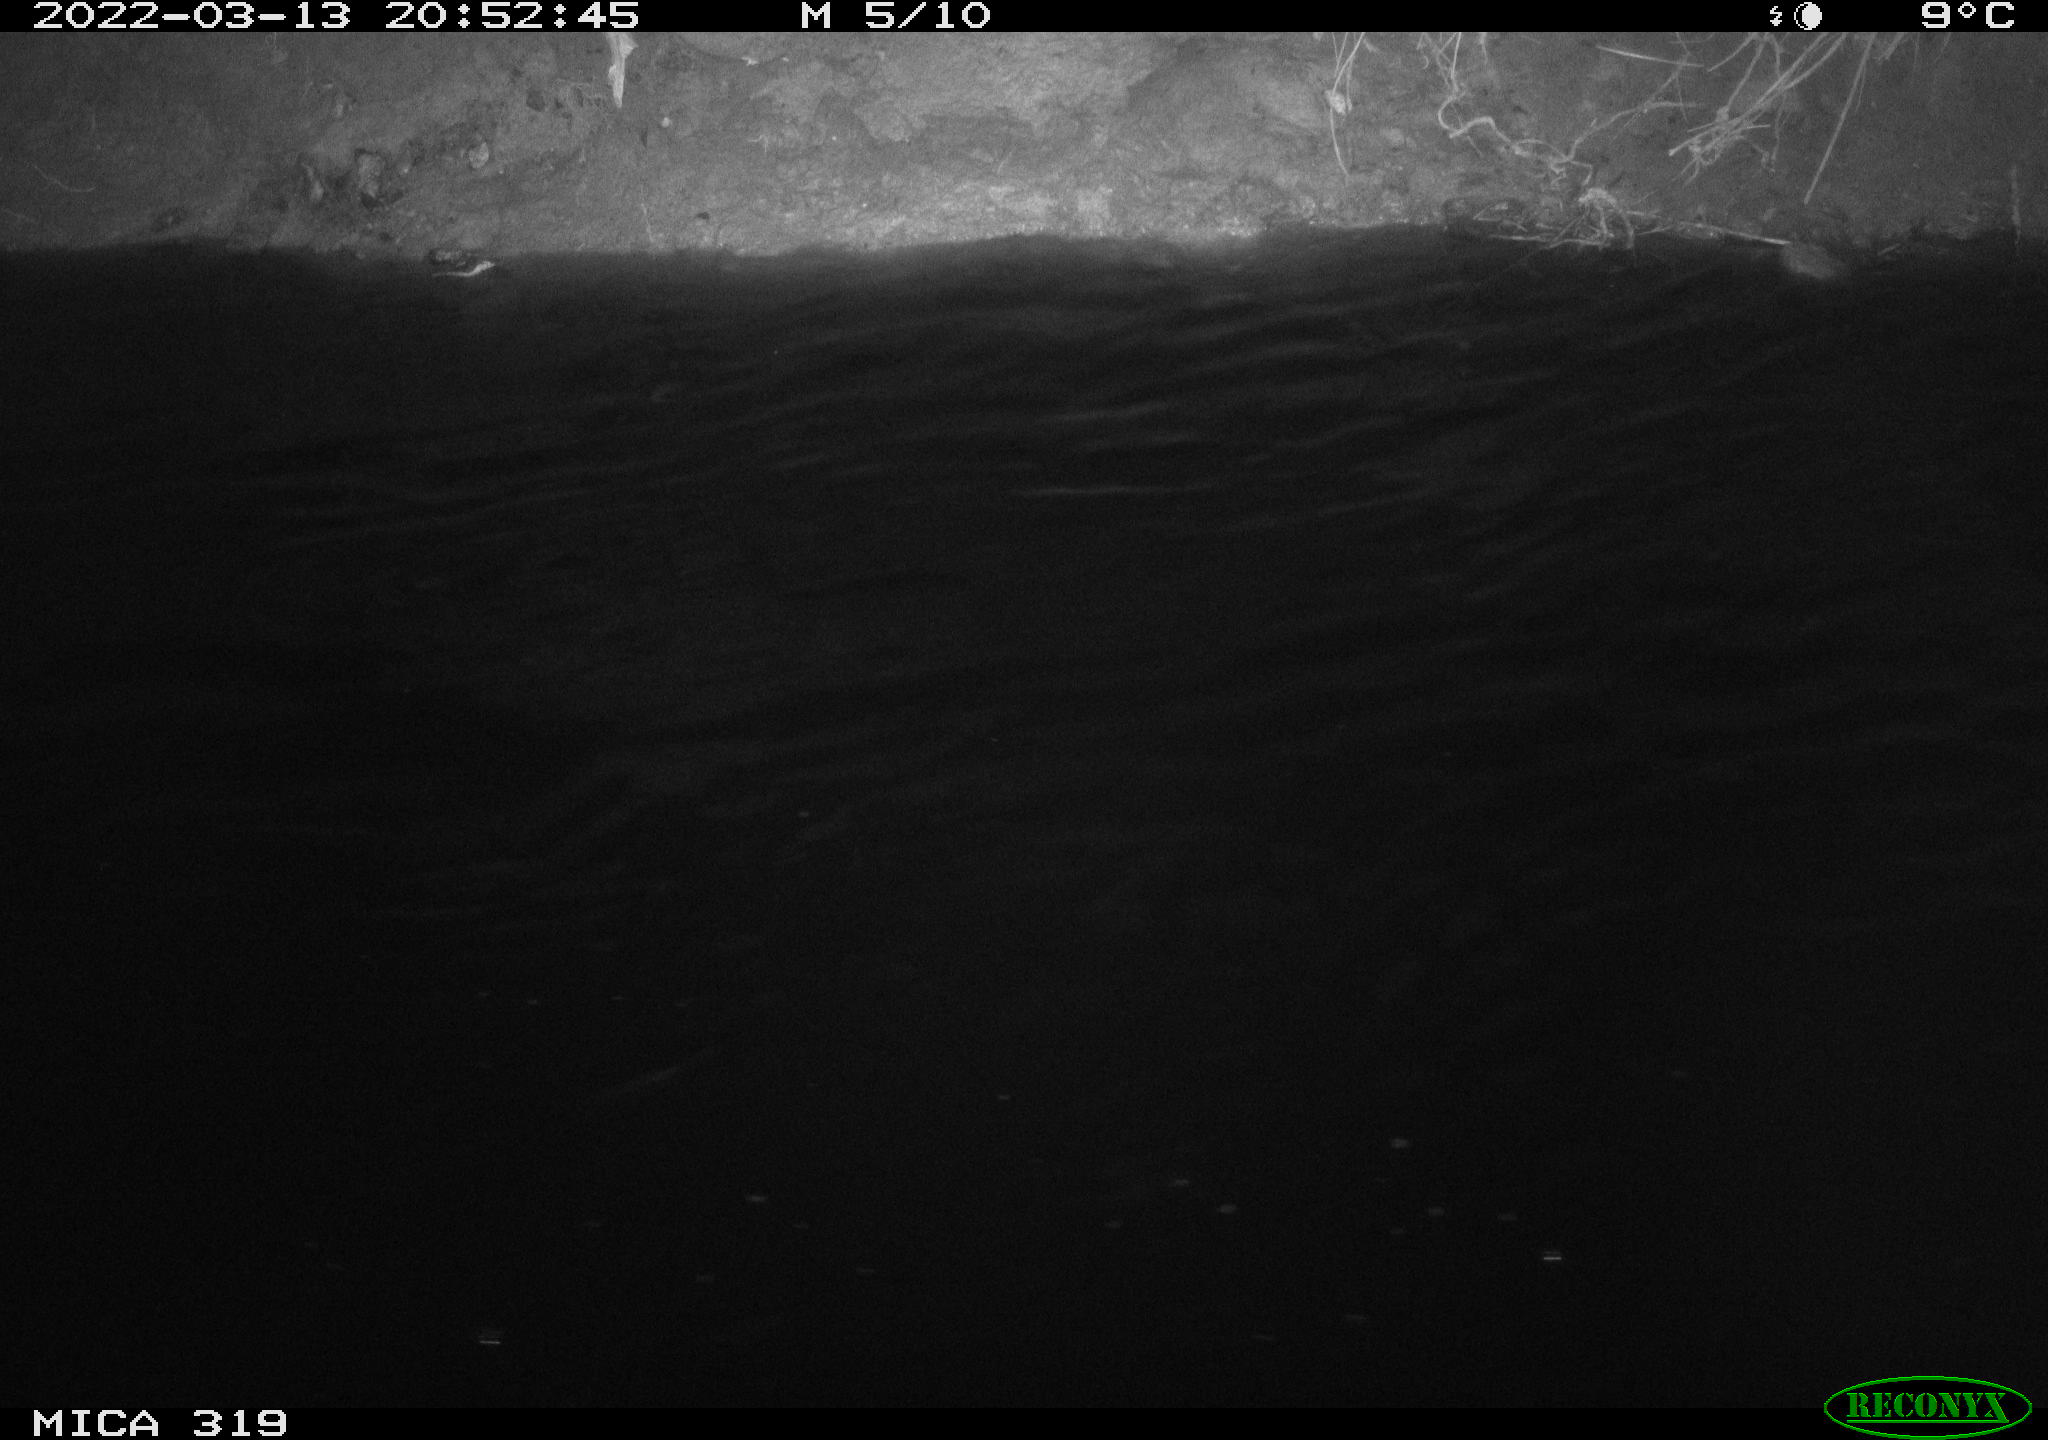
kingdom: Animalia
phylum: Chordata
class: Aves
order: Anseriformes
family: Anatidae
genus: Anas
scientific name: Anas platyrhynchos
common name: Mallard
